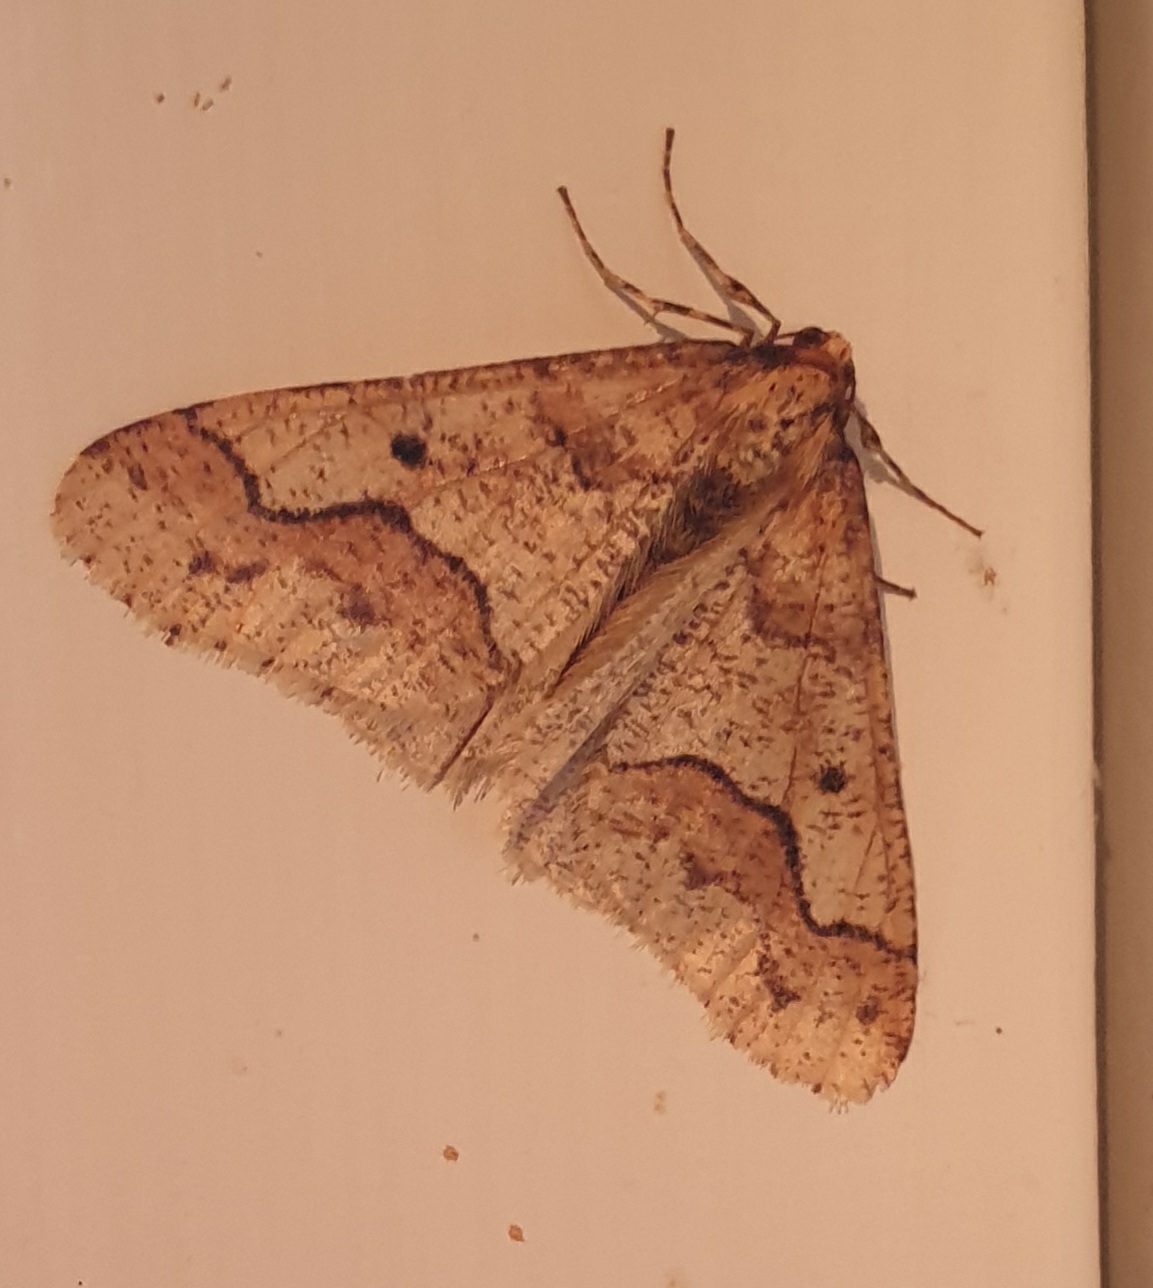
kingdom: Animalia
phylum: Arthropoda
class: Insecta
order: Lepidoptera
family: Geometridae
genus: Erannis
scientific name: Erannis defoliaria
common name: Stor frostmåler
